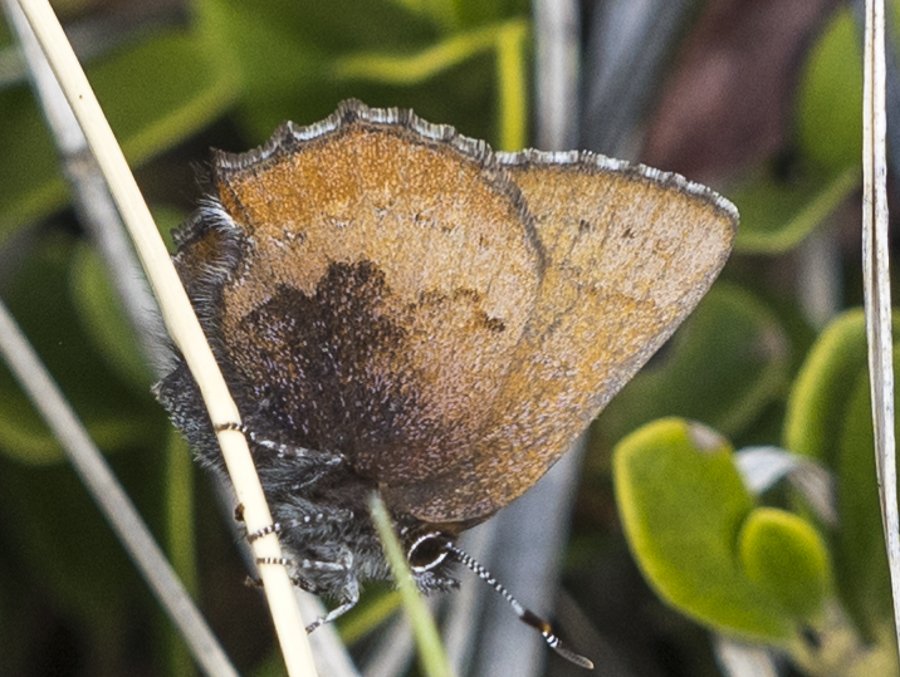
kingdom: Animalia
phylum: Arthropoda
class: Insecta
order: Lepidoptera
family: Lycaenidae
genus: Incisalia
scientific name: Incisalia irioides
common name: Brown Elfin
